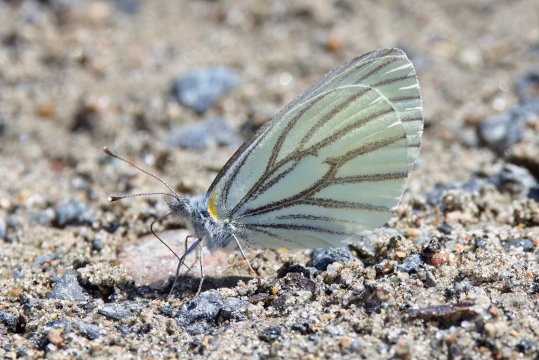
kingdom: Animalia
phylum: Arthropoda
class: Insecta
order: Lepidoptera
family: Pieridae
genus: Pieris
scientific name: Pieris oleracea
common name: Mustard White
